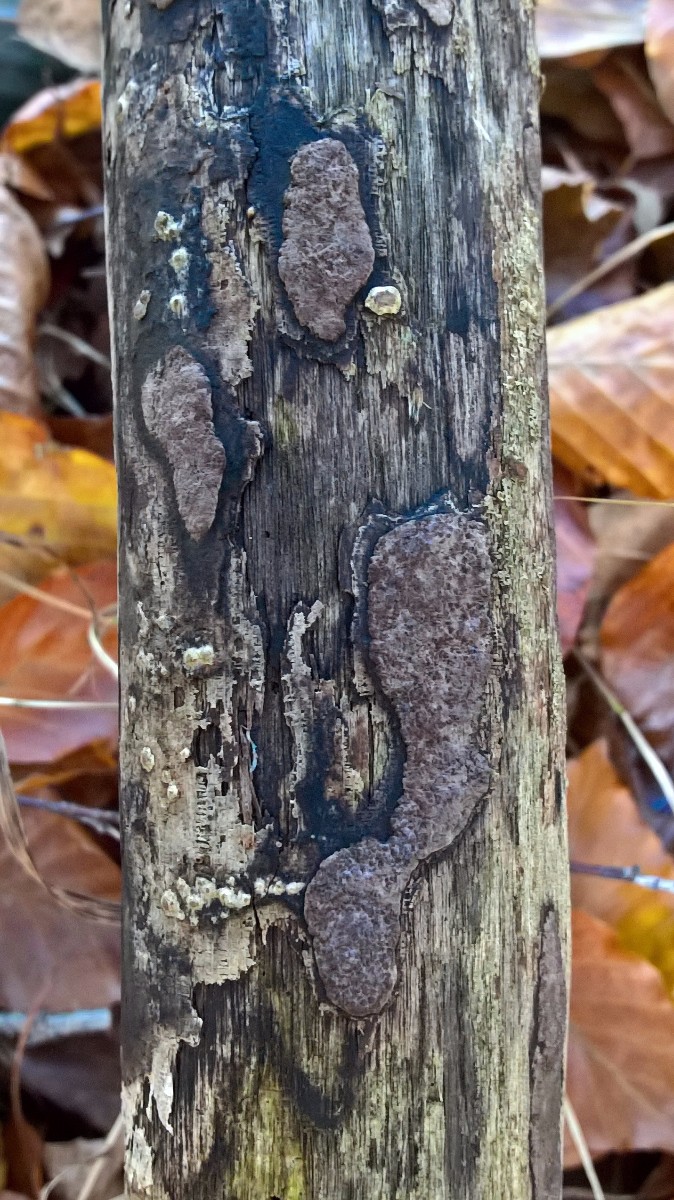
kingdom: Fungi
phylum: Ascomycota
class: Sordariomycetes
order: Xylariales
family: Hypoxylaceae
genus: Hypoxylon
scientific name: Hypoxylon petriniae
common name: nedsænket kulbær
